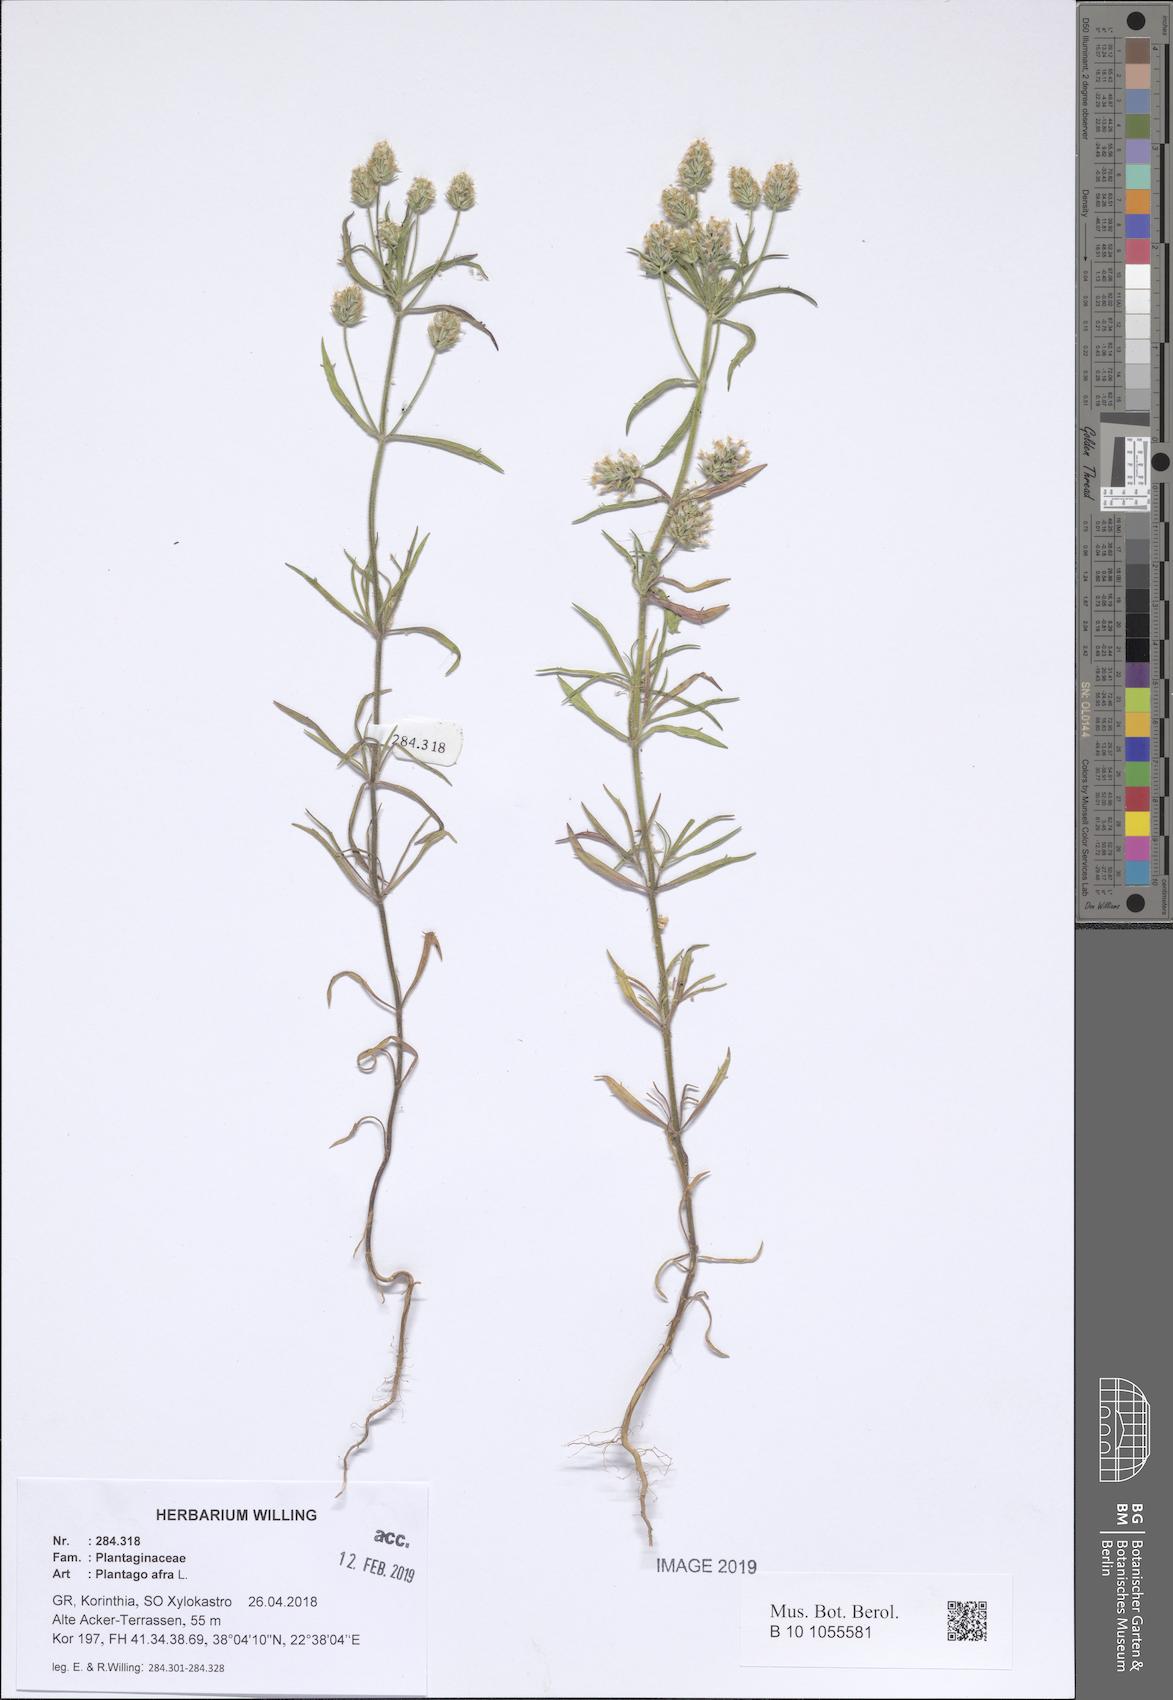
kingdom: Plantae
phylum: Tracheophyta
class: Magnoliopsida
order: Lamiales
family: Plantaginaceae
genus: Plantago
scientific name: Plantago afra
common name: Glandular plantain
